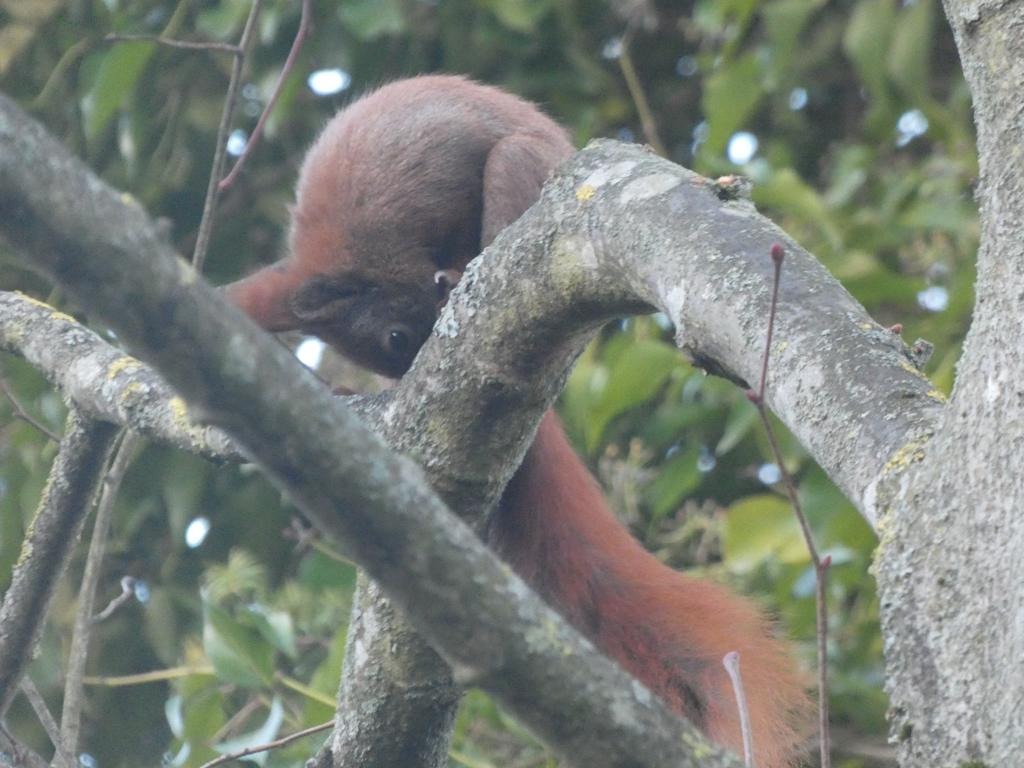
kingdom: Animalia
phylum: Chordata
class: Mammalia
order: Rodentia
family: Sciuridae
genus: Sciurus
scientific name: Sciurus vulgaris
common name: Egern
